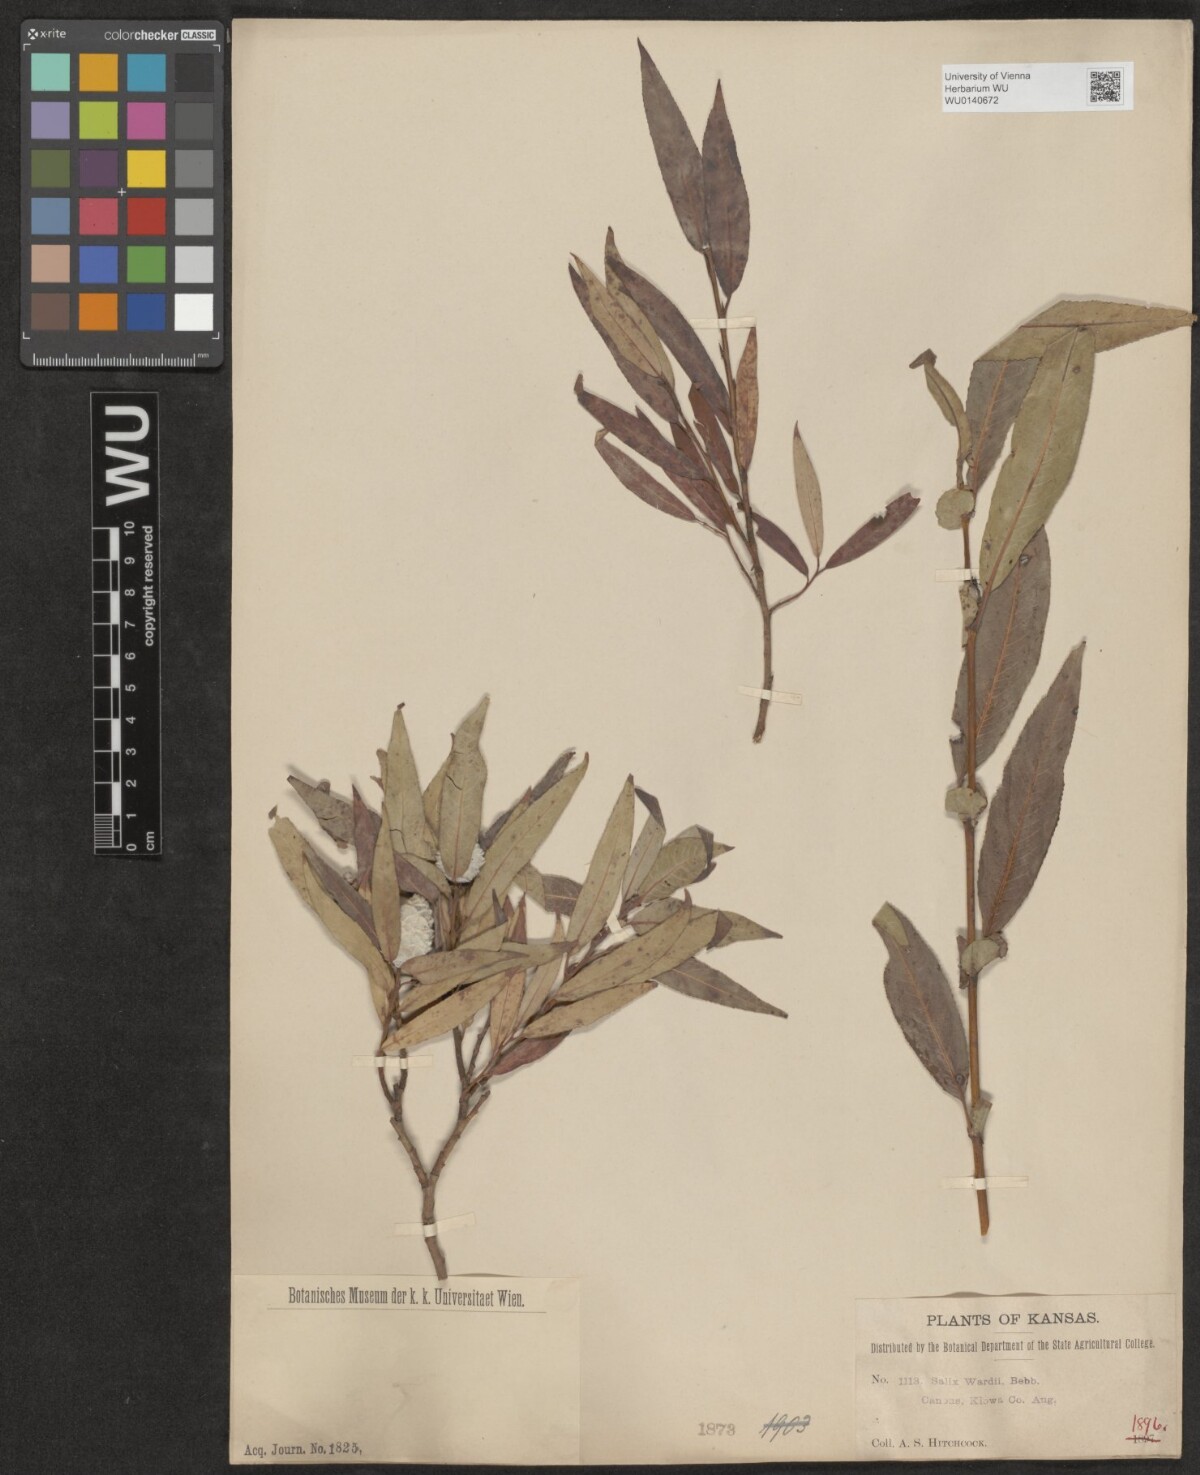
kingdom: Plantae
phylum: Tracheophyta
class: Magnoliopsida
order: Malpighiales
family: Salicaceae
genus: Salix
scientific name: Salix caroliniana
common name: Carolina willow
